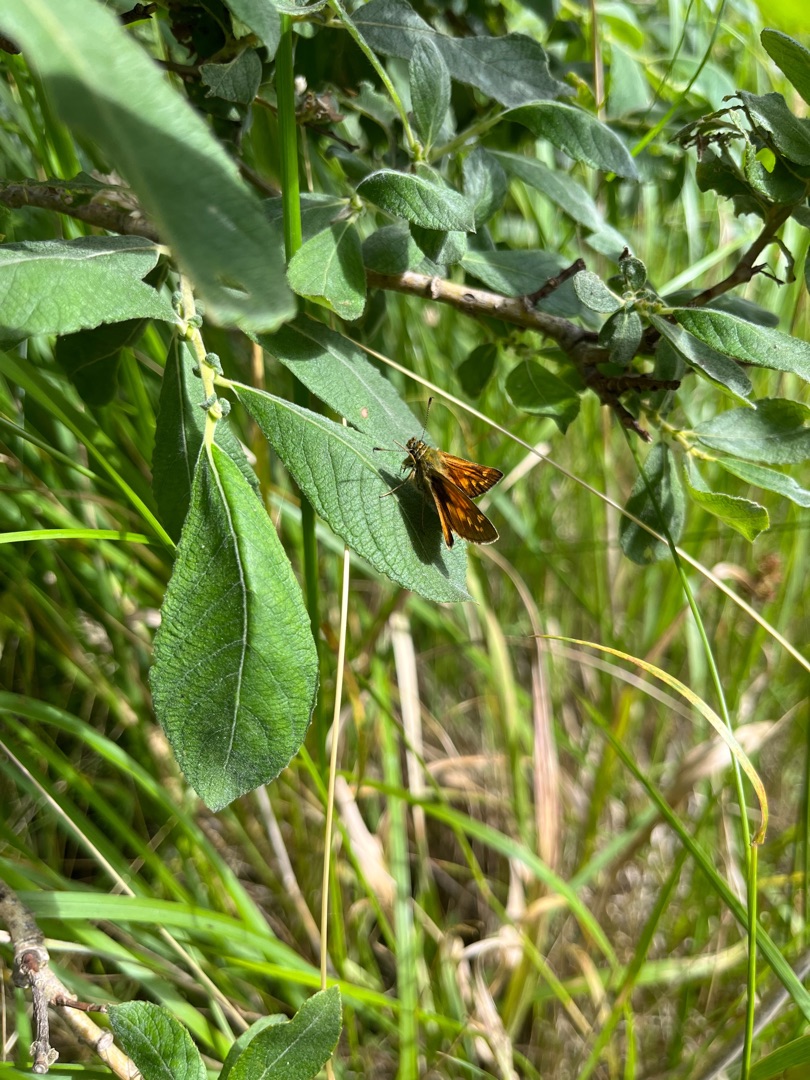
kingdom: Animalia
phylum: Arthropoda
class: Insecta
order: Lepidoptera
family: Hesperiidae
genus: Ochlodes
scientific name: Ochlodes venata
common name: Stor bredpande
